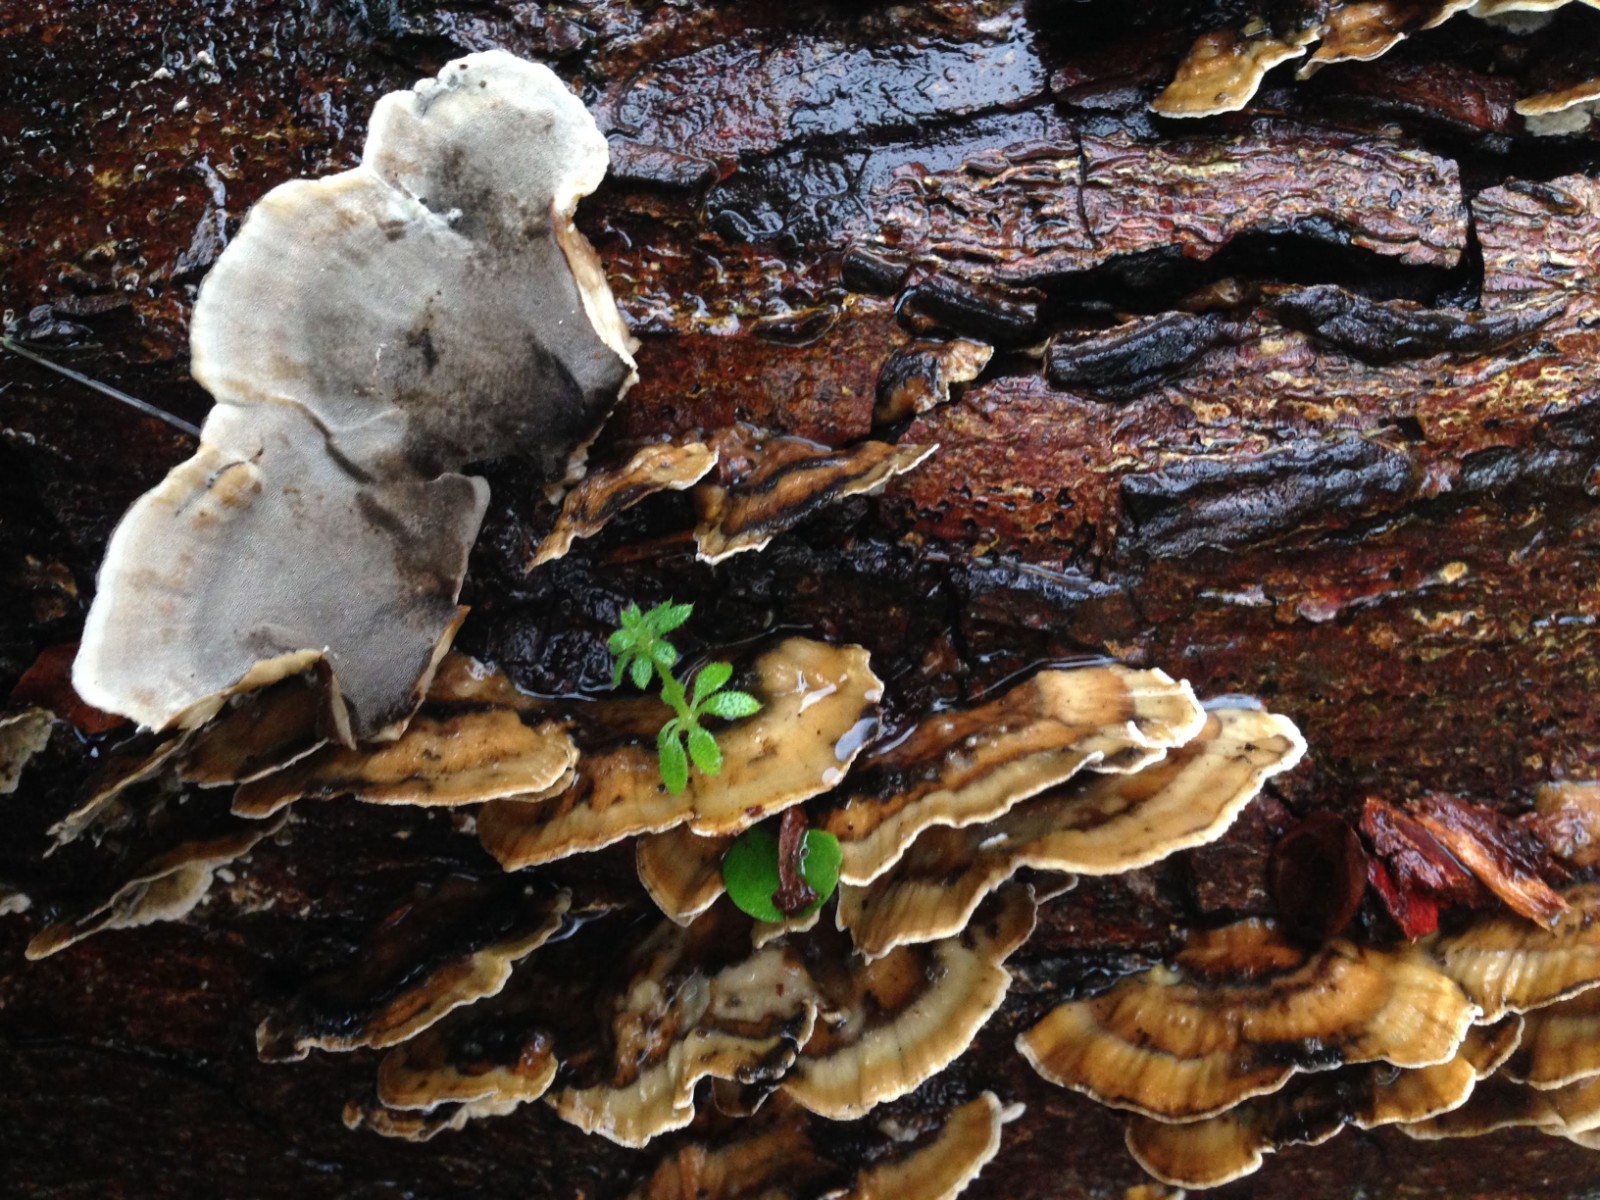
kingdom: Fungi
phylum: Basidiomycota
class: Agaricomycetes
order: Polyporales
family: Phanerochaetaceae
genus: Bjerkandera
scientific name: Bjerkandera adusta
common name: sveden sodporesvamp
